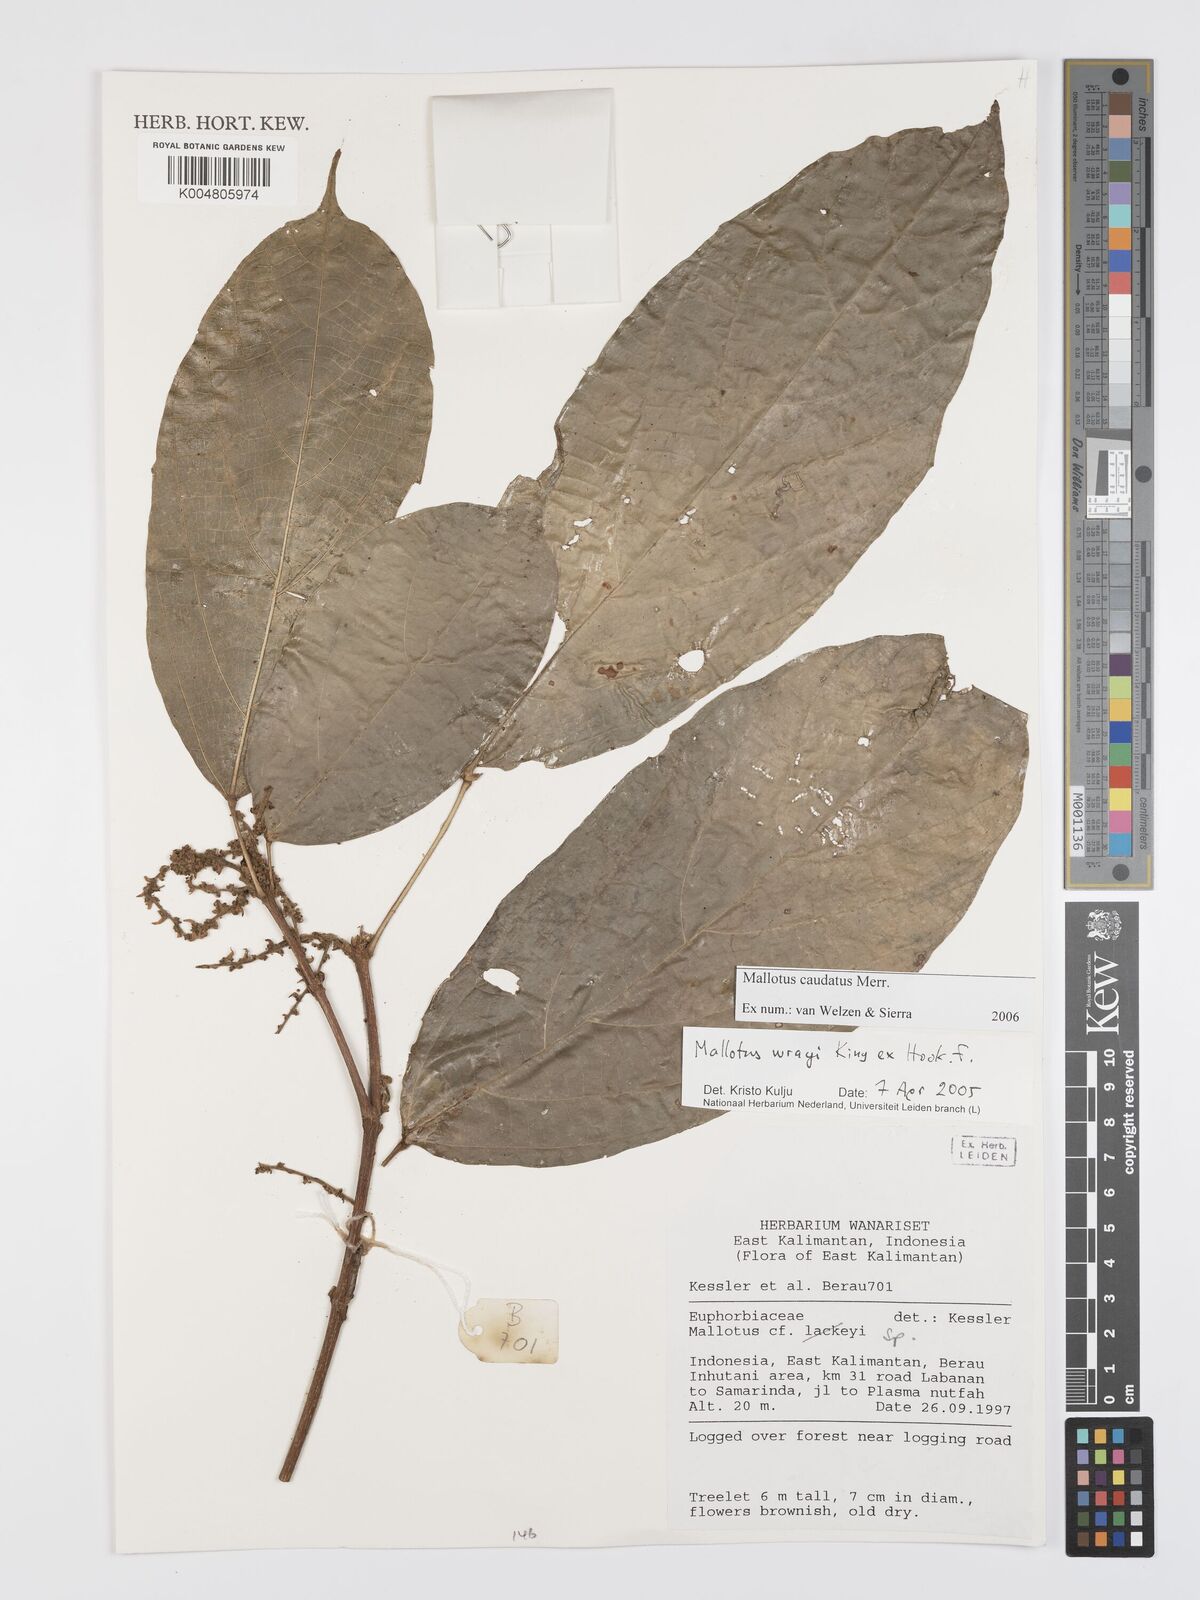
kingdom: Plantae
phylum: Tracheophyta
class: Magnoliopsida
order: Malpighiales
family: Euphorbiaceae
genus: Mallotus
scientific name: Mallotus caudatus
